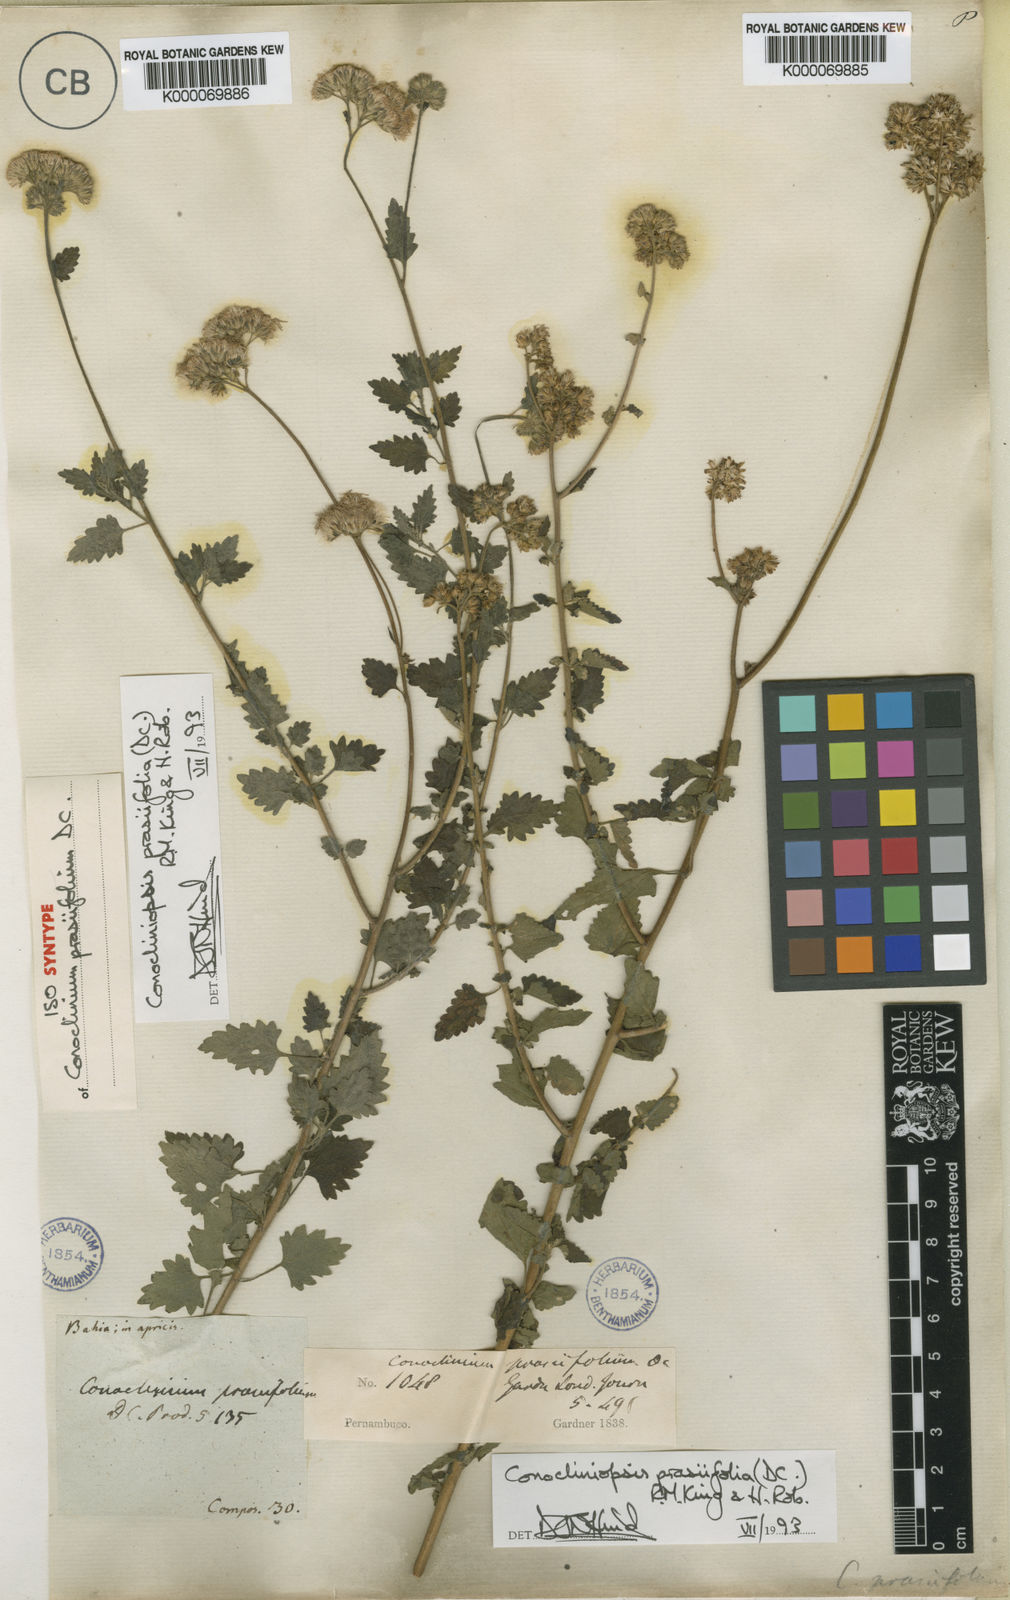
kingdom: Plantae
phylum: Tracheophyta
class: Magnoliopsida
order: Asterales
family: Asteraceae
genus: Conocliniopsis
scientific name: Conocliniopsis grossedentata
